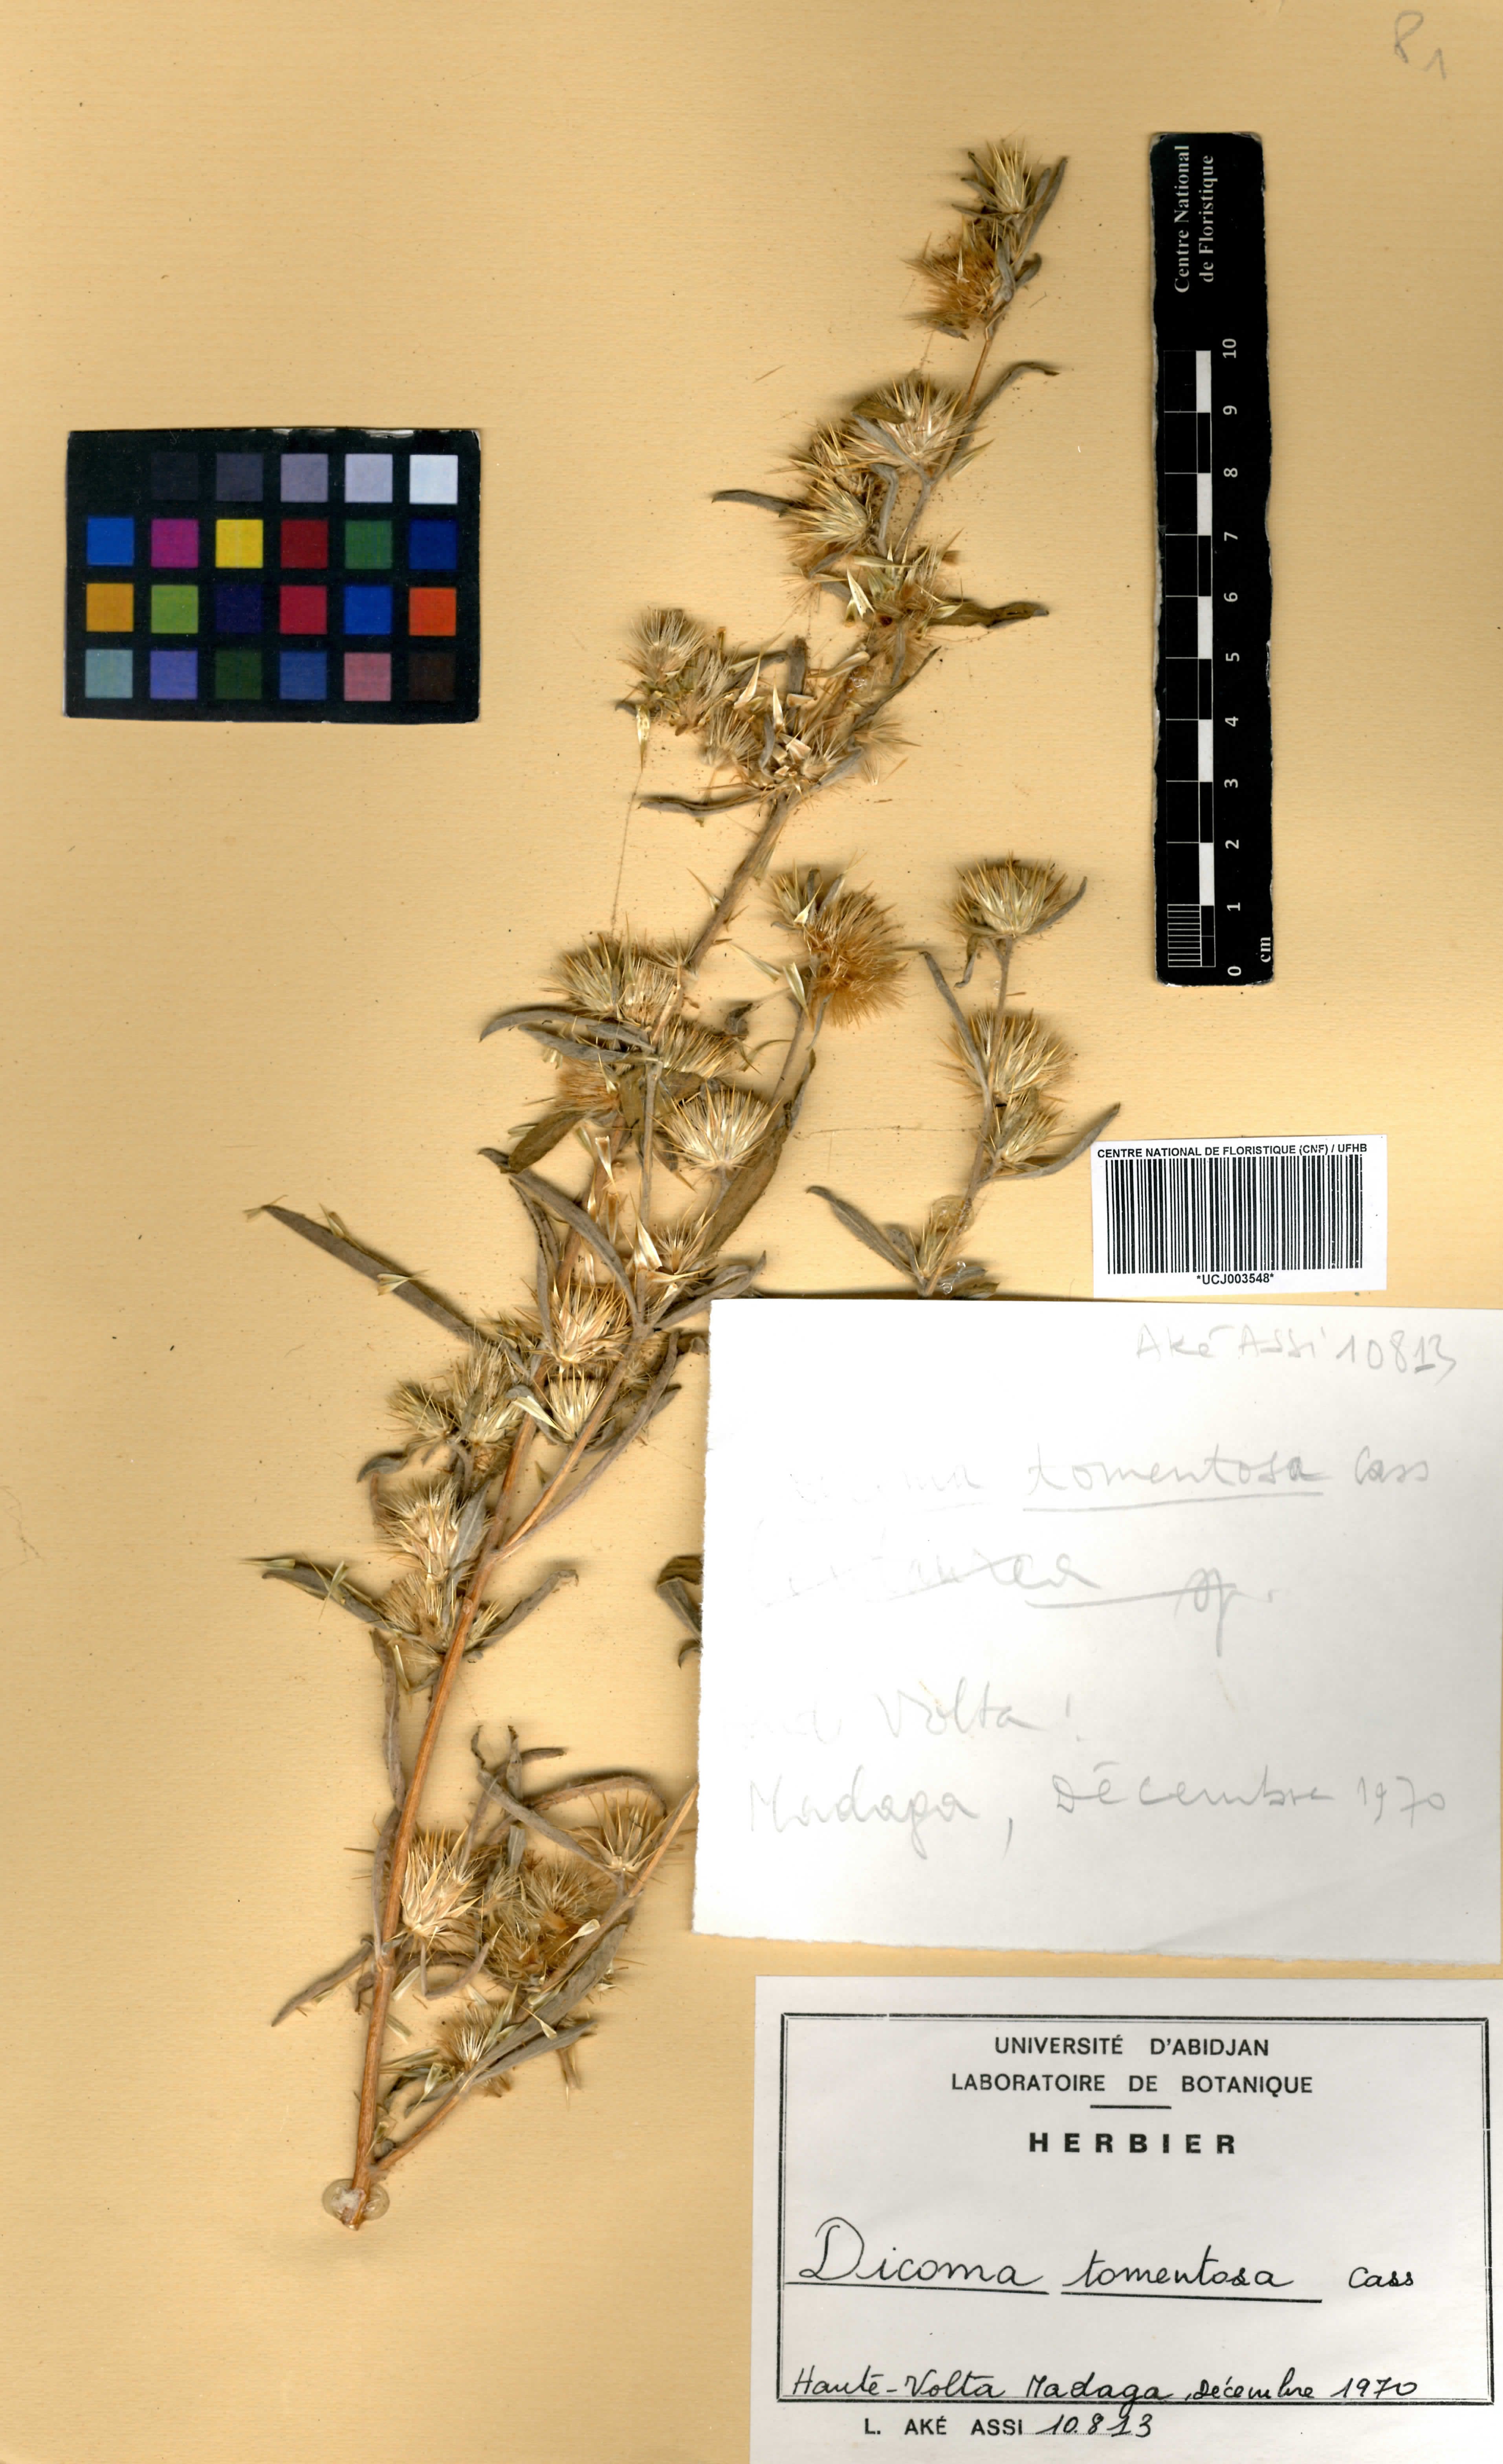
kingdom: Plantae
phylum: Tracheophyta
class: Magnoliopsida
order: Asterales
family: Asteraceae
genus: Dicoma
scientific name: Dicoma tomentosa
